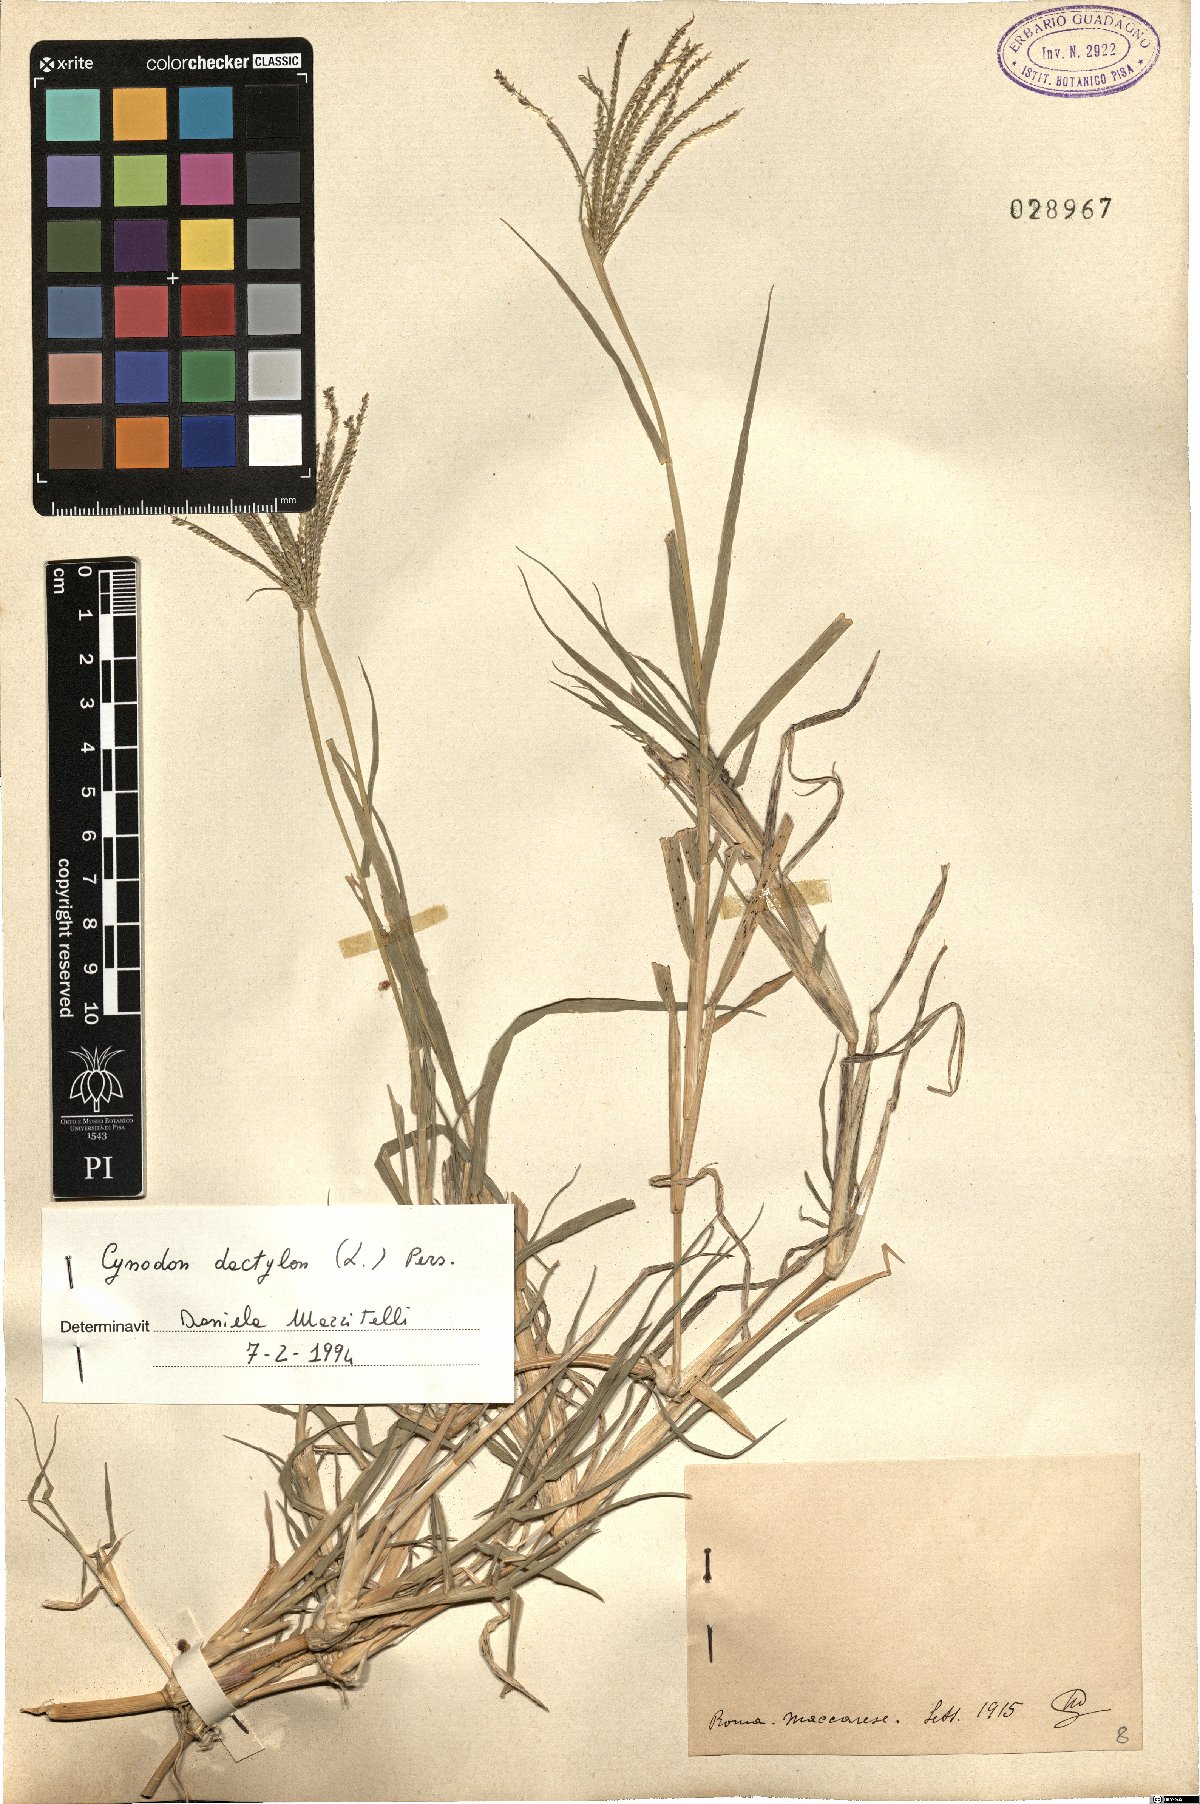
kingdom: Plantae
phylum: Tracheophyta
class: Liliopsida
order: Poales
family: Poaceae
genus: Cynodon
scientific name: Cynodon dactylon
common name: Bermuda grass
